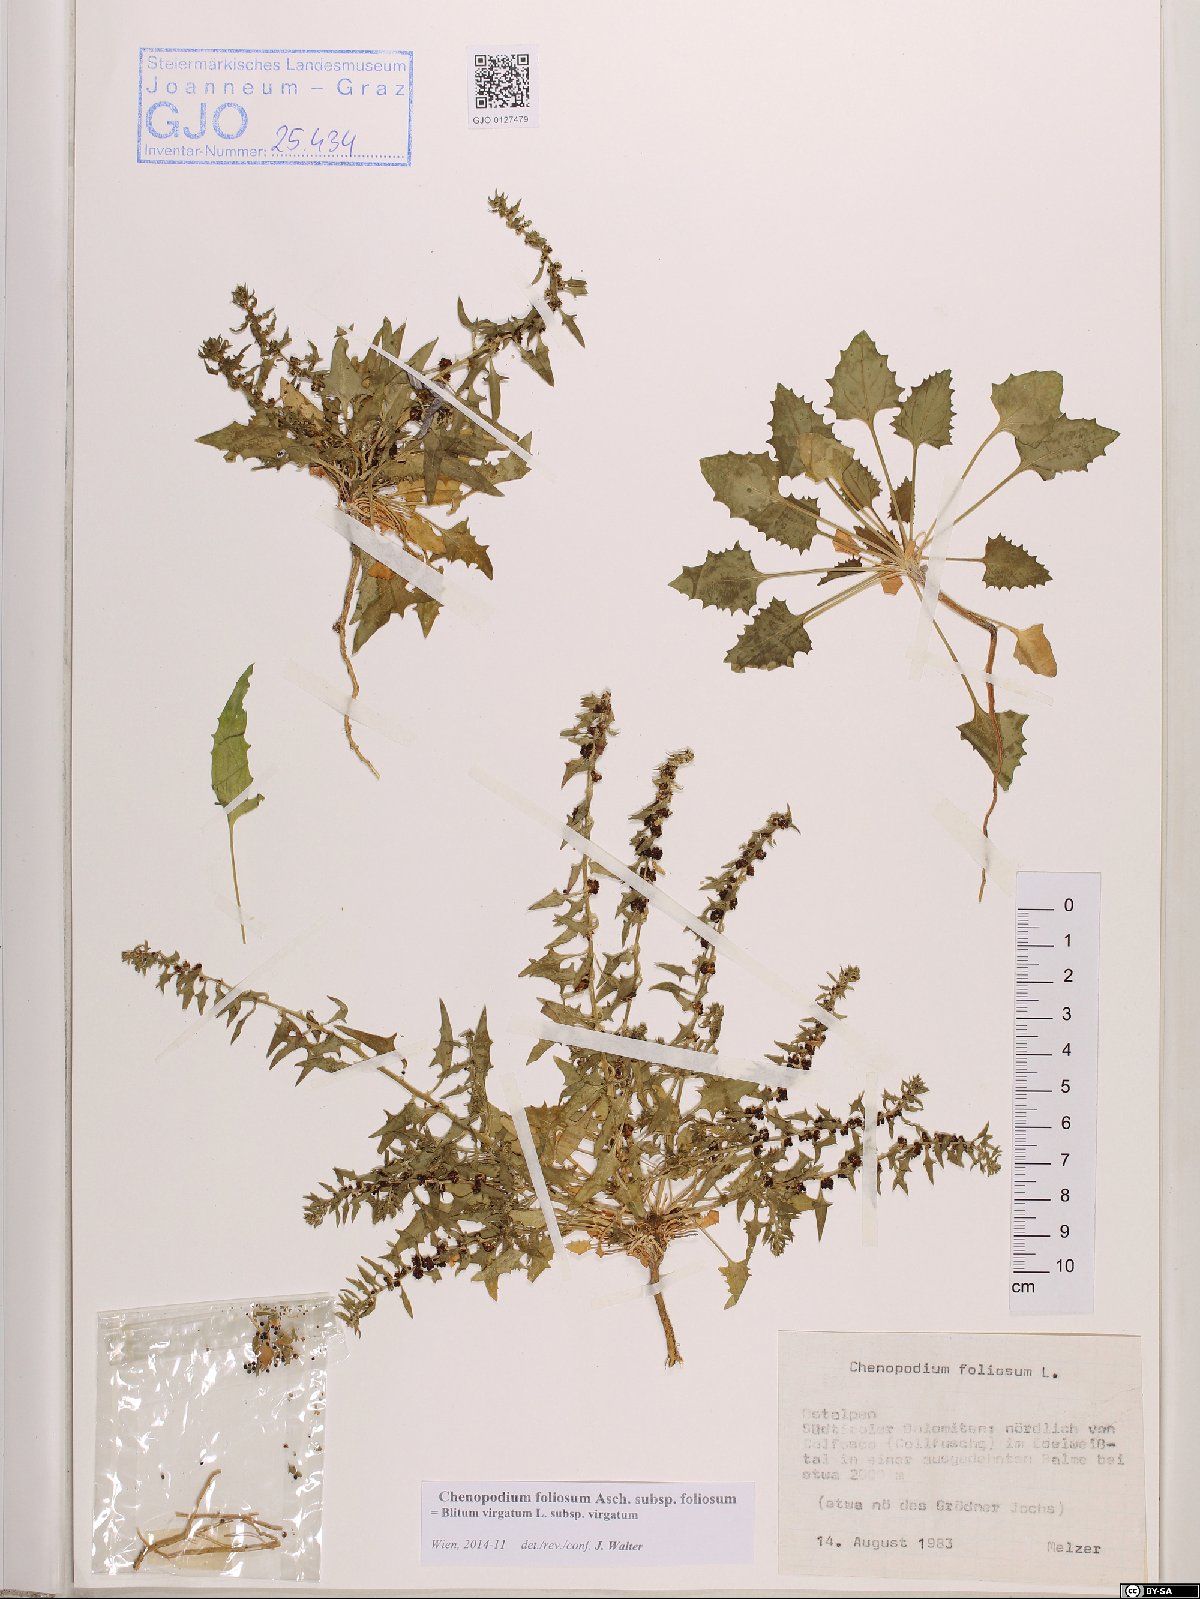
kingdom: Plantae
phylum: Tracheophyta
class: Magnoliopsida
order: Caryophyllales
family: Amaranthaceae
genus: Blitum
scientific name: Blitum virgatum
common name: Strawberry goosefoot
